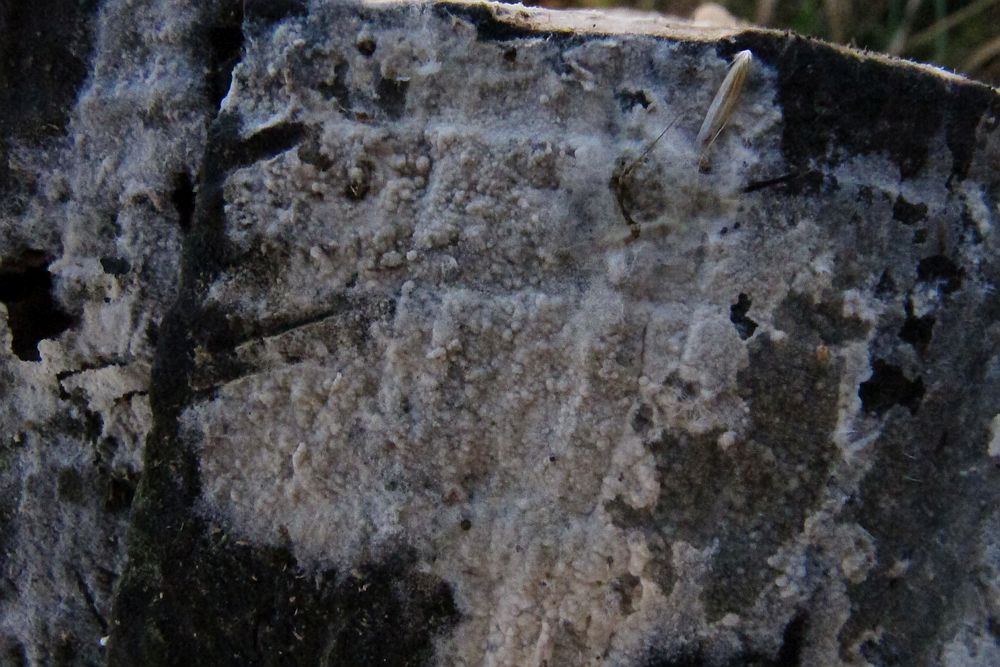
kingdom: Fungi
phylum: Basidiomycota
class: Agaricomycetes
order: Cantharellales
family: Botryobasidiaceae
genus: Botryobasidium
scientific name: Botryobasidium subcoronatum
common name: almindelig spindhinde
